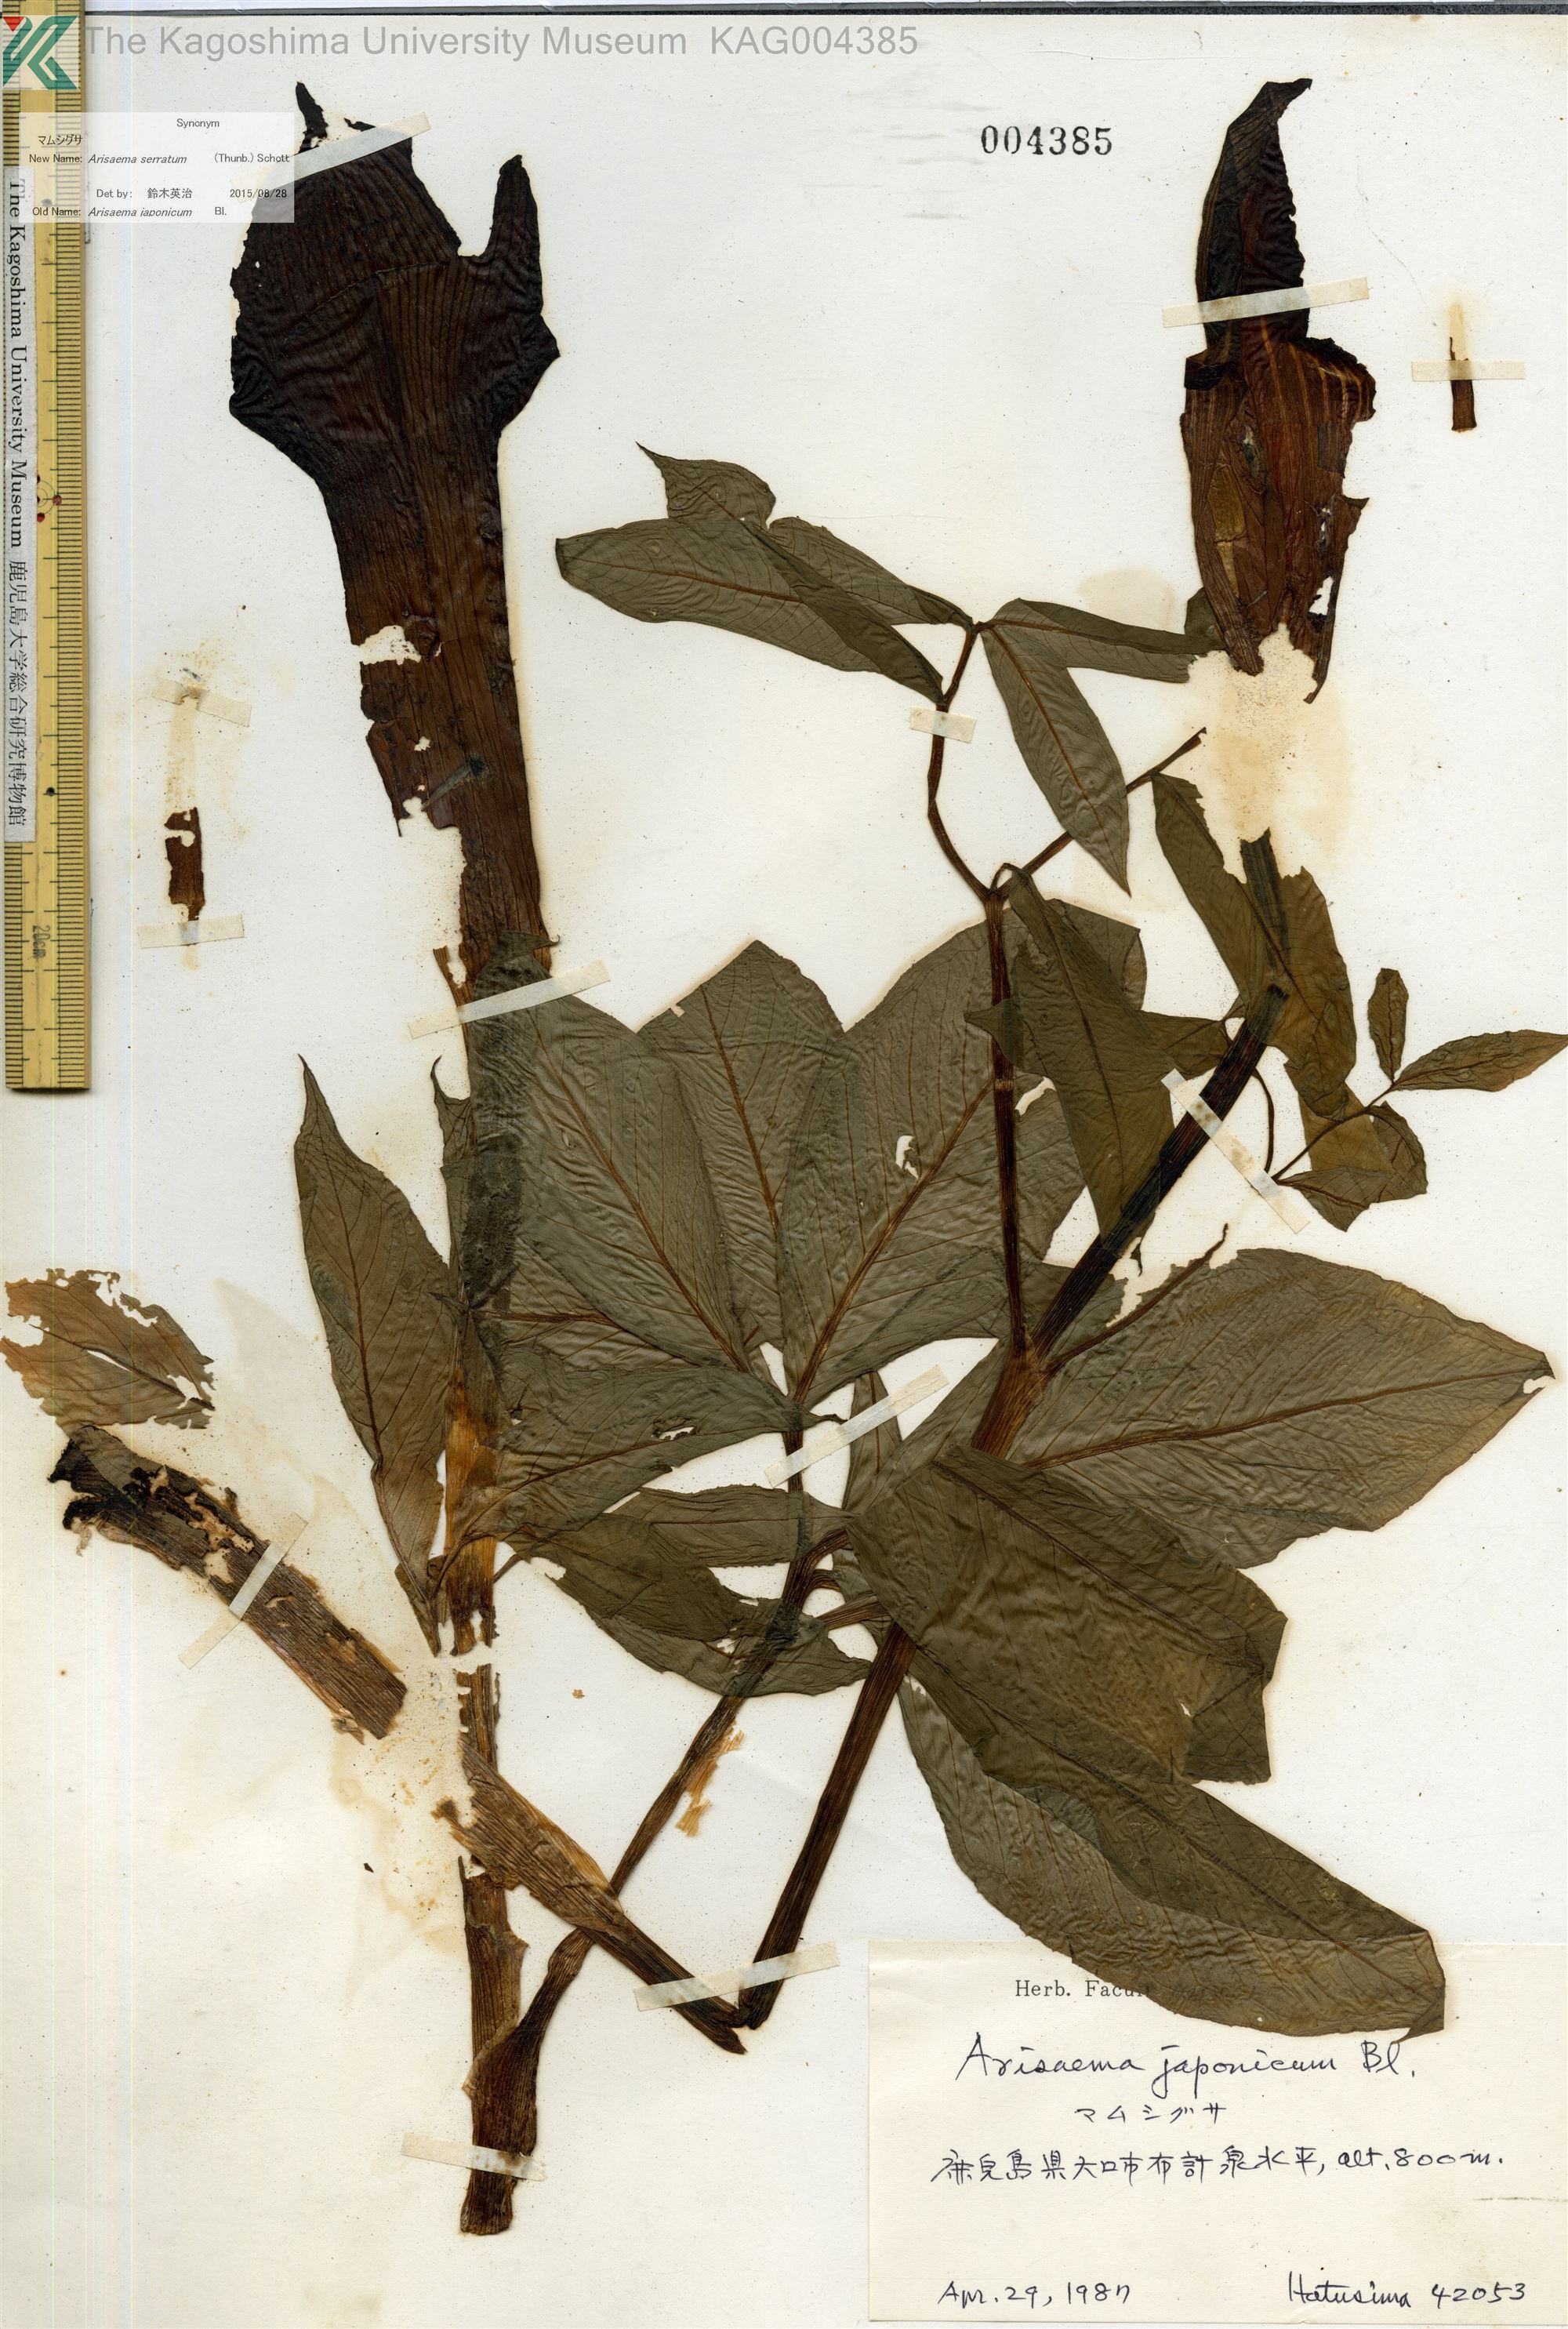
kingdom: Plantae
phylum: Tracheophyta
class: Liliopsida
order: Alismatales
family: Araceae
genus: Arisaema
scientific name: Arisaema serratum
